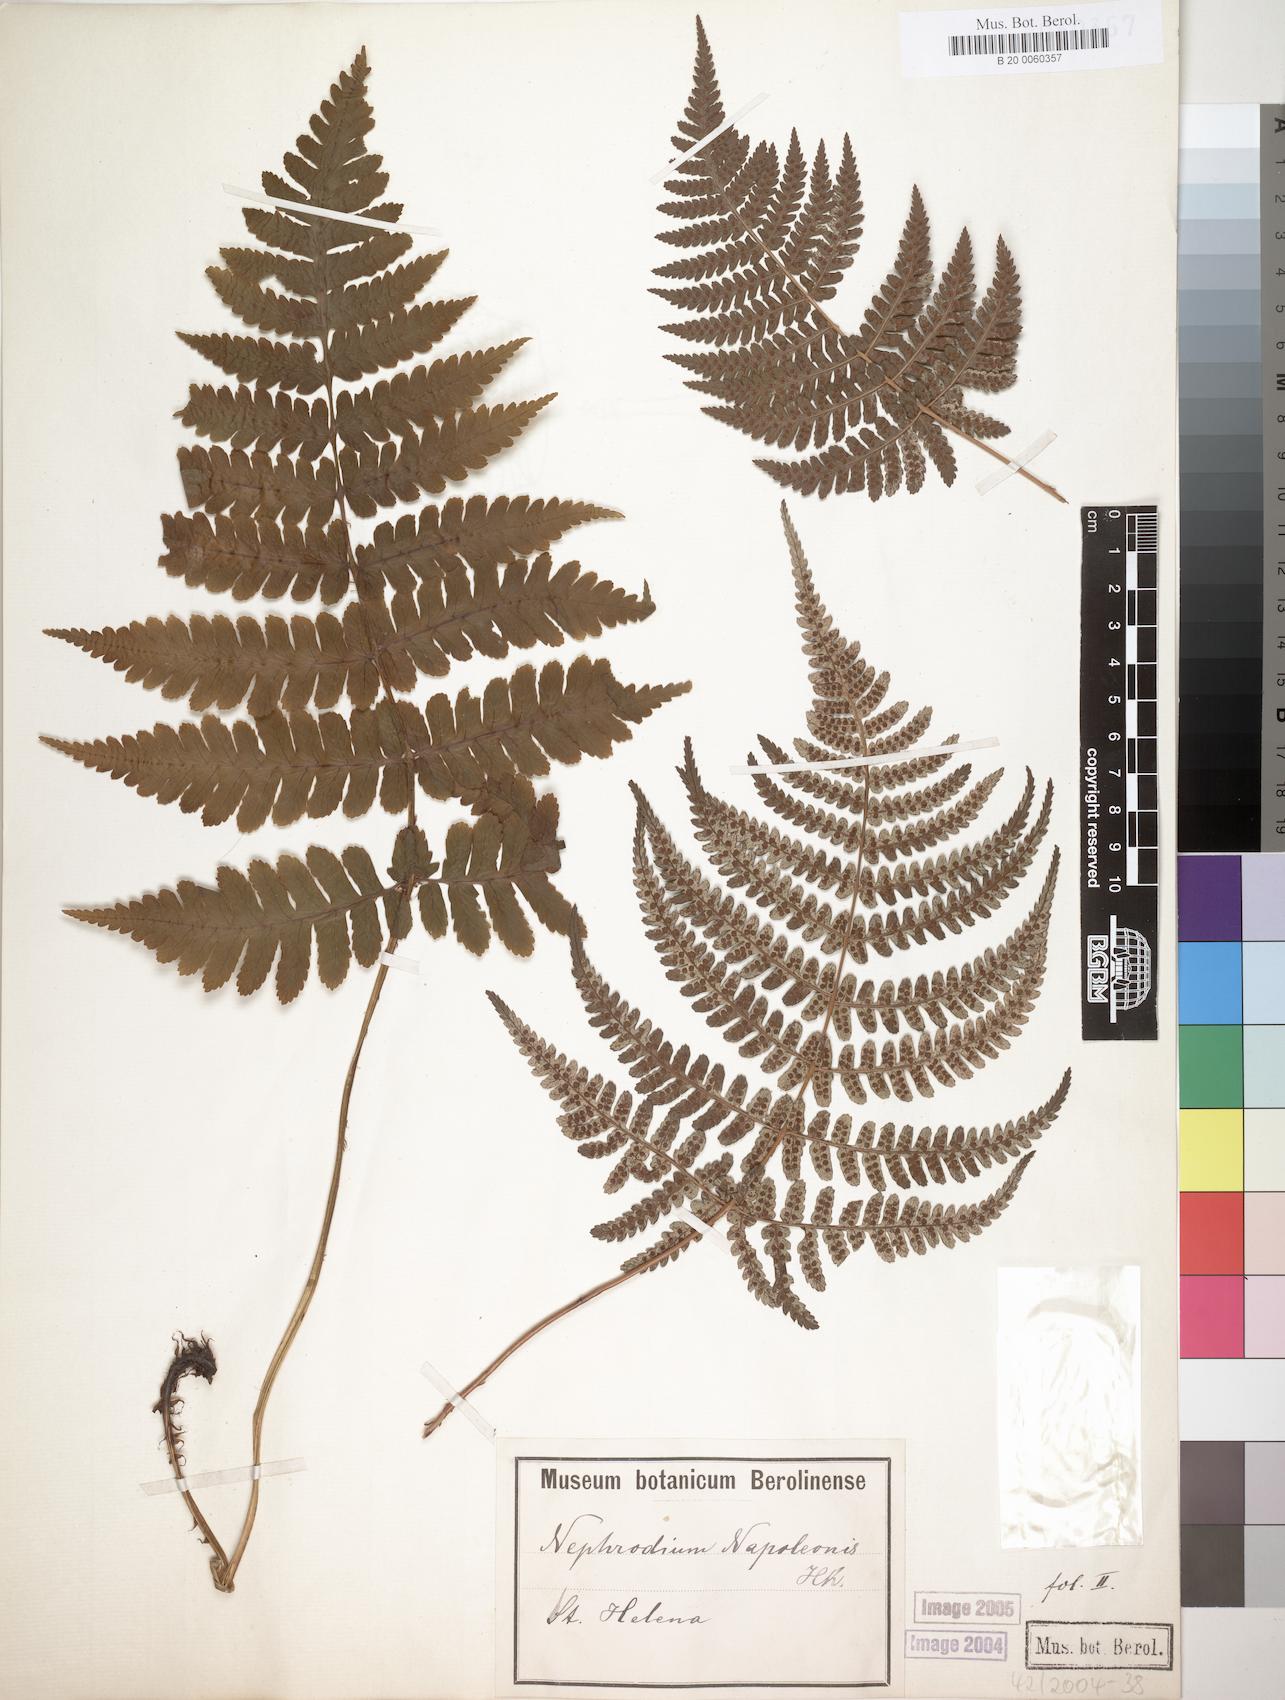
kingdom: Plantae
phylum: Tracheophyta
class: Polypodiopsida
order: Polypodiales
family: Dryopteridaceae
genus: Dryopteris
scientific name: Dryopteris napoleonis
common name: Small kidney fern
